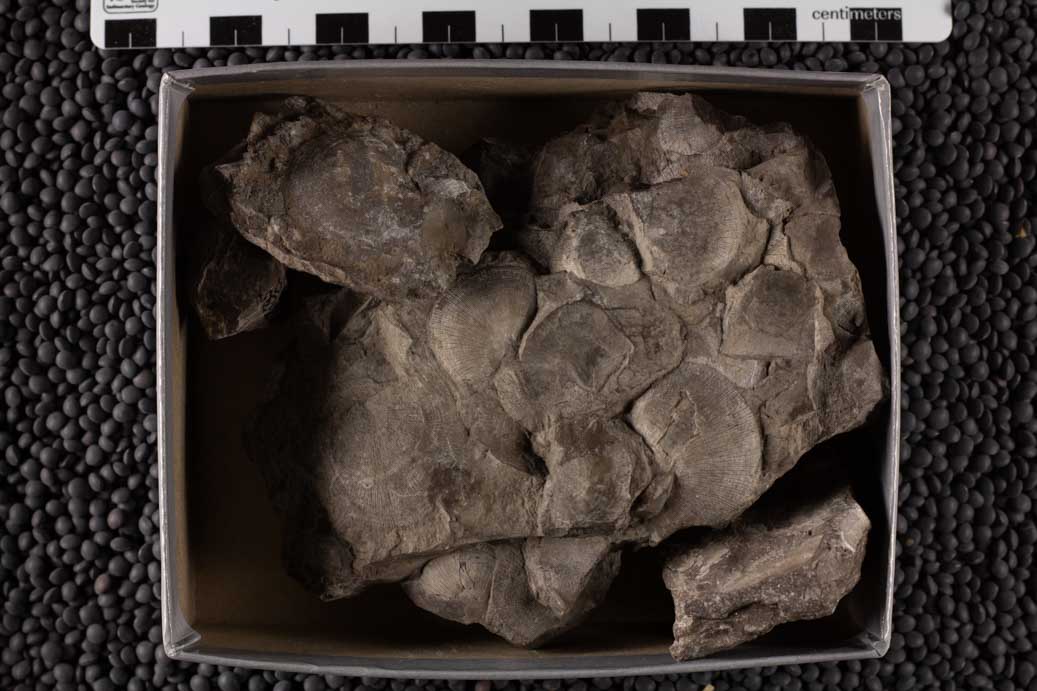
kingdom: Animalia
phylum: Brachiopoda
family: Strophomenidae
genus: Strophomena
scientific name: Strophomena
